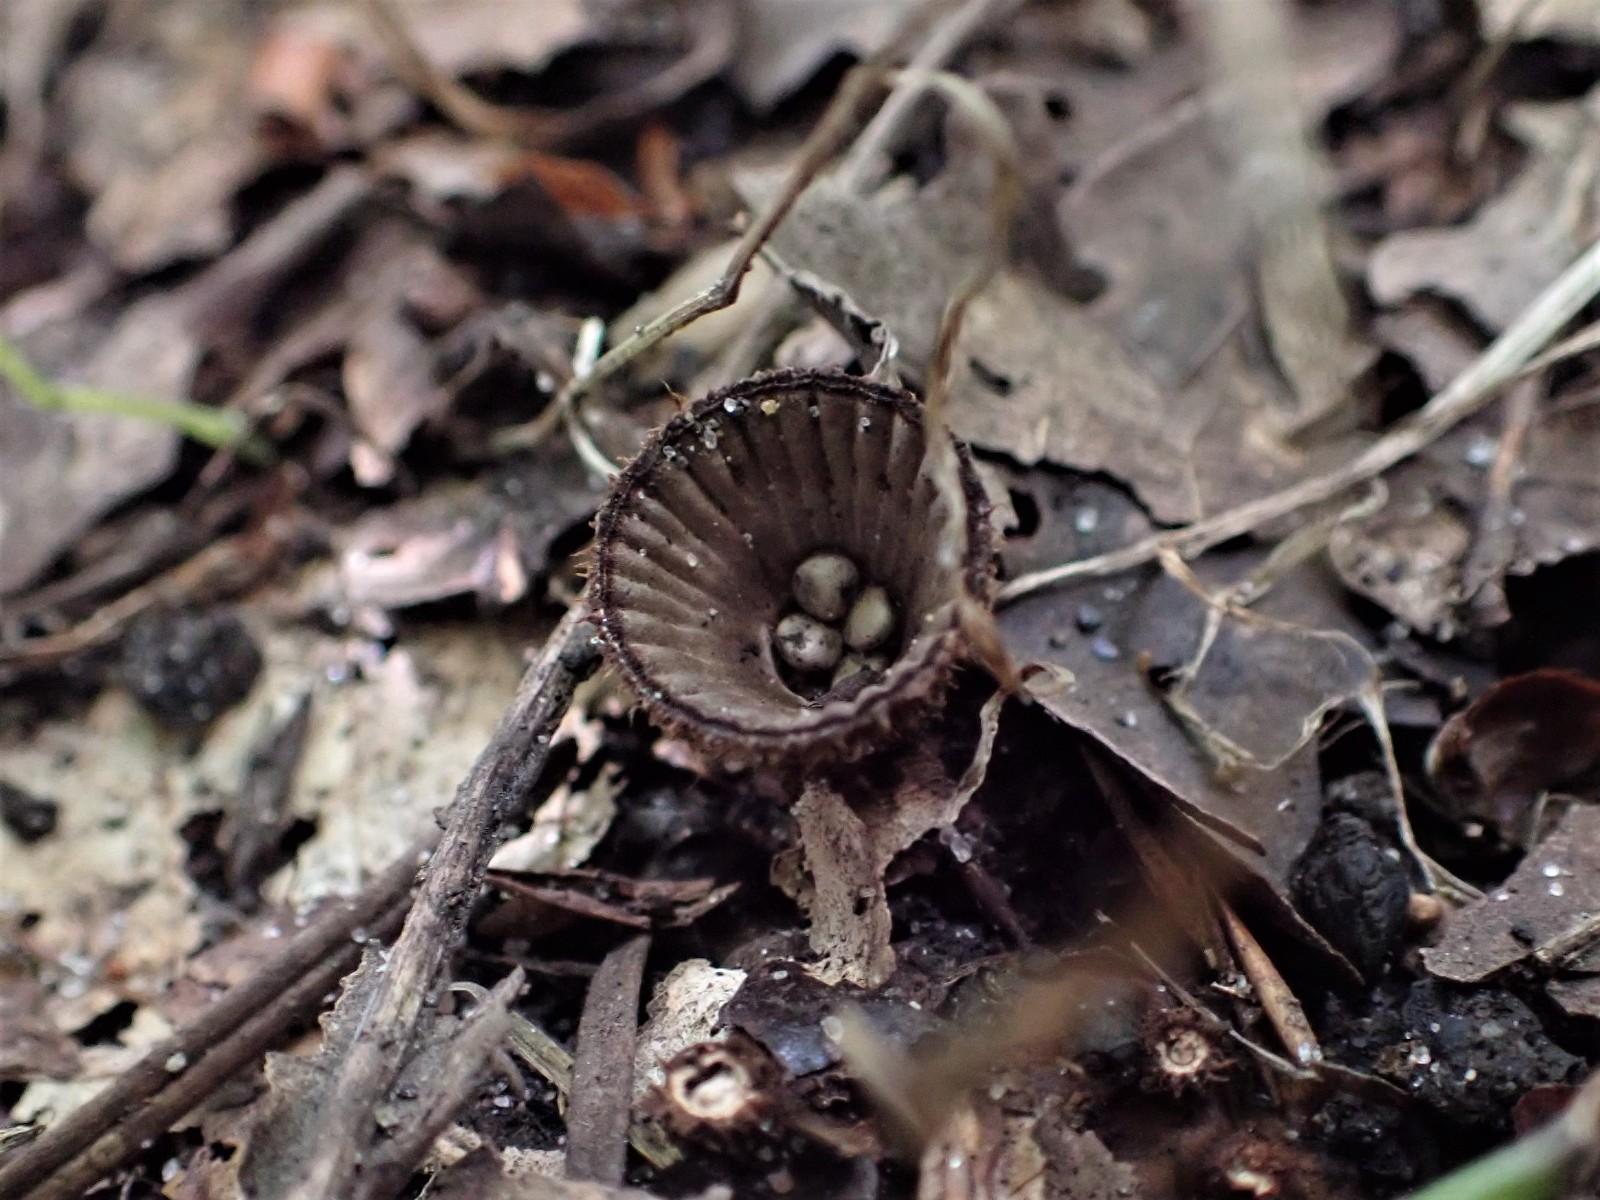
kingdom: Fungi
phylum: Basidiomycota
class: Agaricomycetes
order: Agaricales
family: Agaricaceae
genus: Cyathus
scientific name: Cyathus striatus
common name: stribet redesvamp
